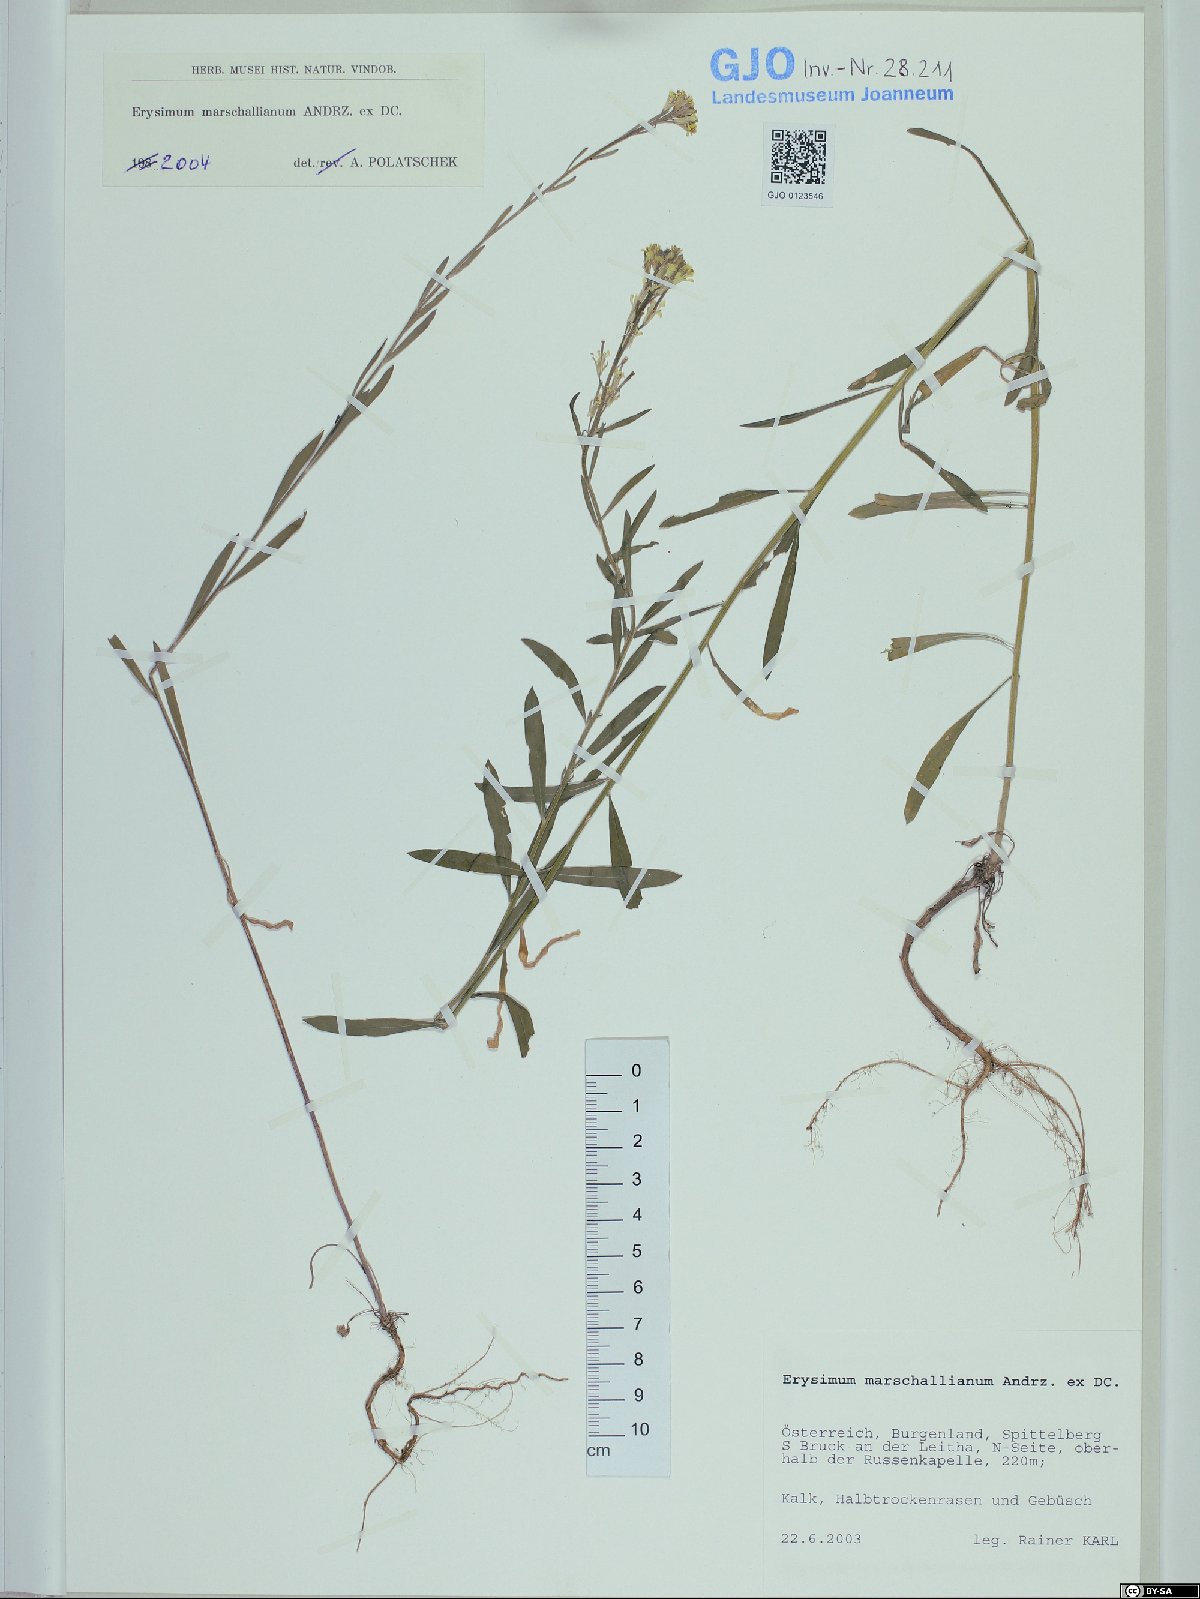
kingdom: Plantae
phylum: Tracheophyta
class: Magnoliopsida
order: Brassicales
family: Brassicaceae
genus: Erysimum
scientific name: Erysimum marschallianum
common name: Hard wallflower
